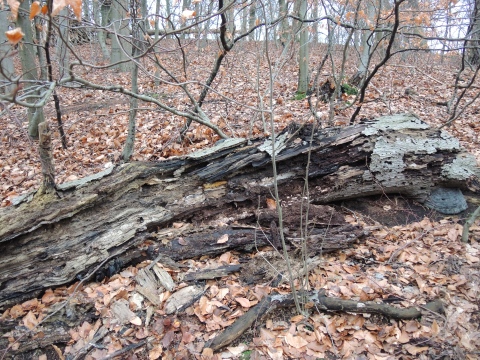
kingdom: Fungi
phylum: Basidiomycota
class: Agaricomycetes
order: Polyporales
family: Meruliaceae
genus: Mycoacia
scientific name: Mycoacia gilvescens
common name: rosa pastelporesvamp
